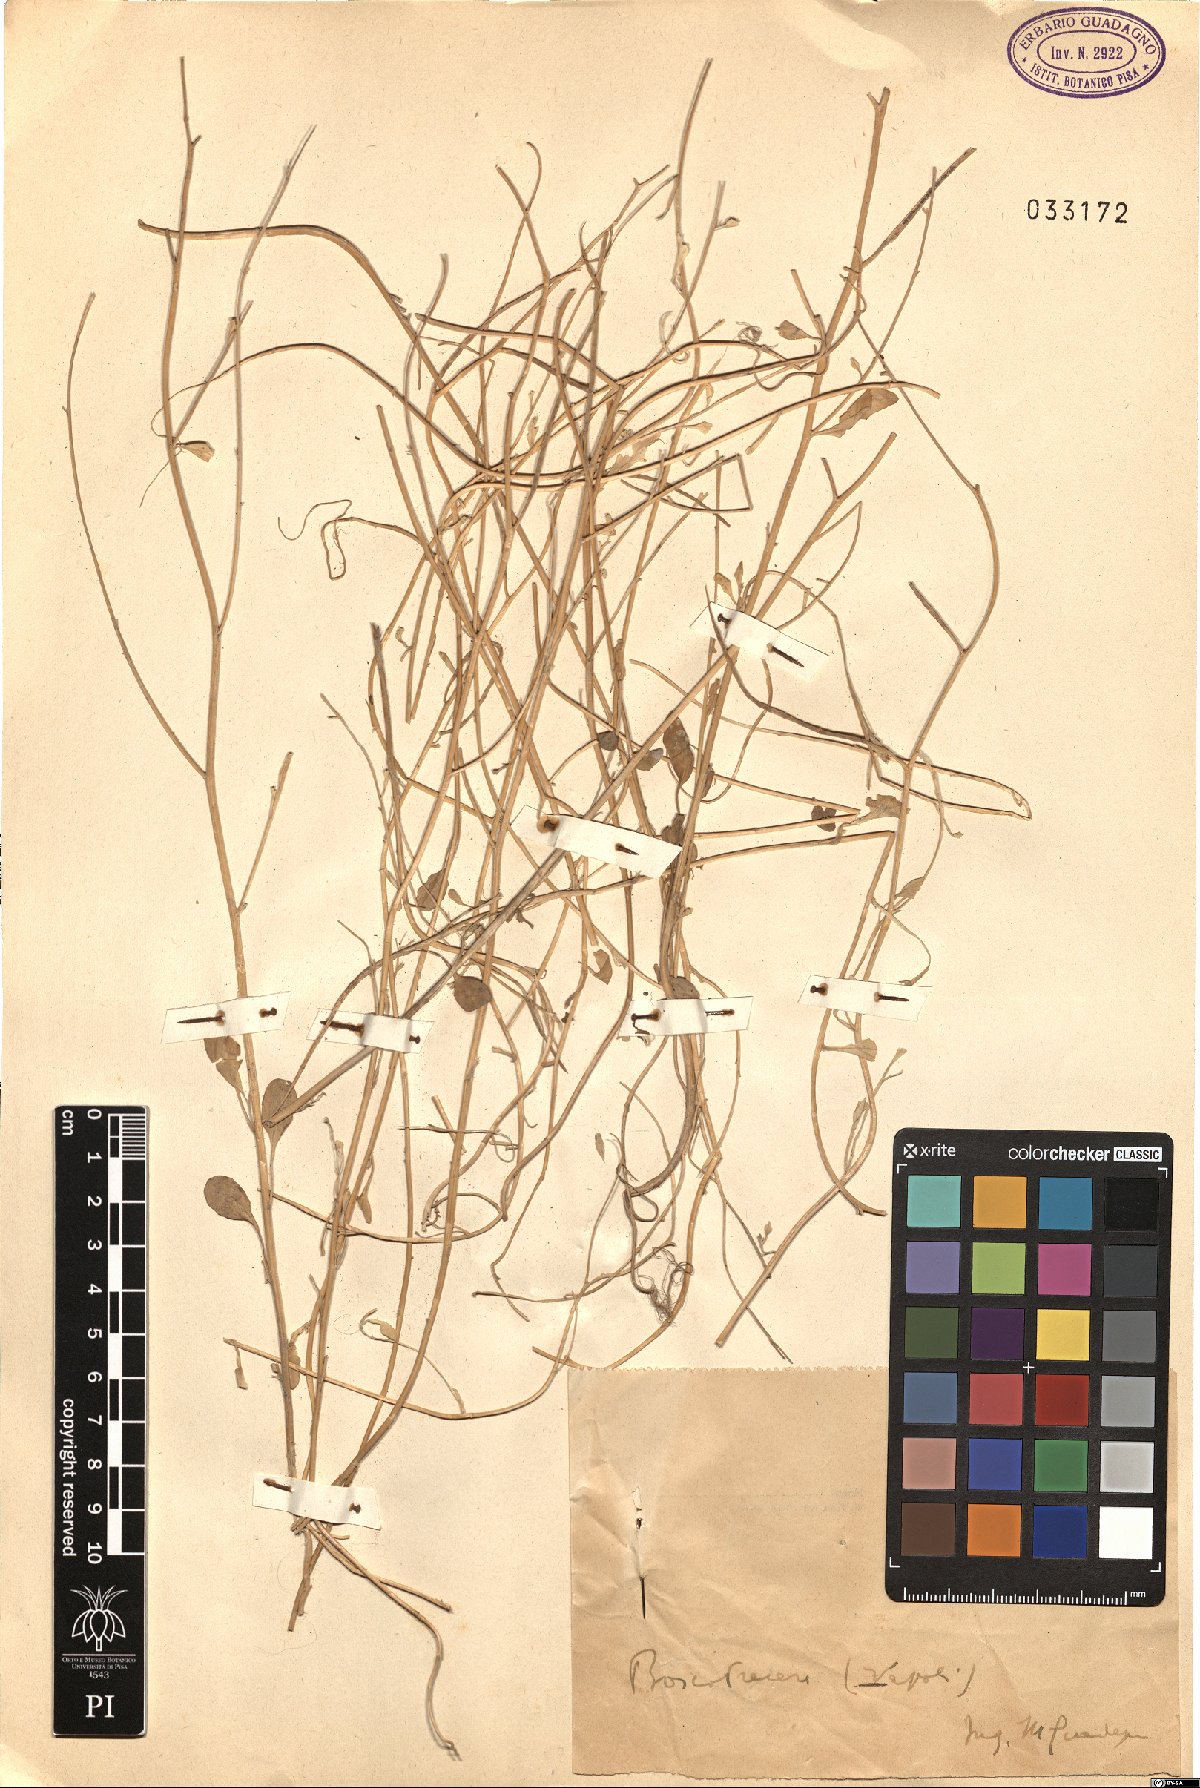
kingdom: Plantae
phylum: Tracheophyta
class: Magnoliopsida
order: Brassicales
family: Brassicaceae
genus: Brassica
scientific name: Brassica
